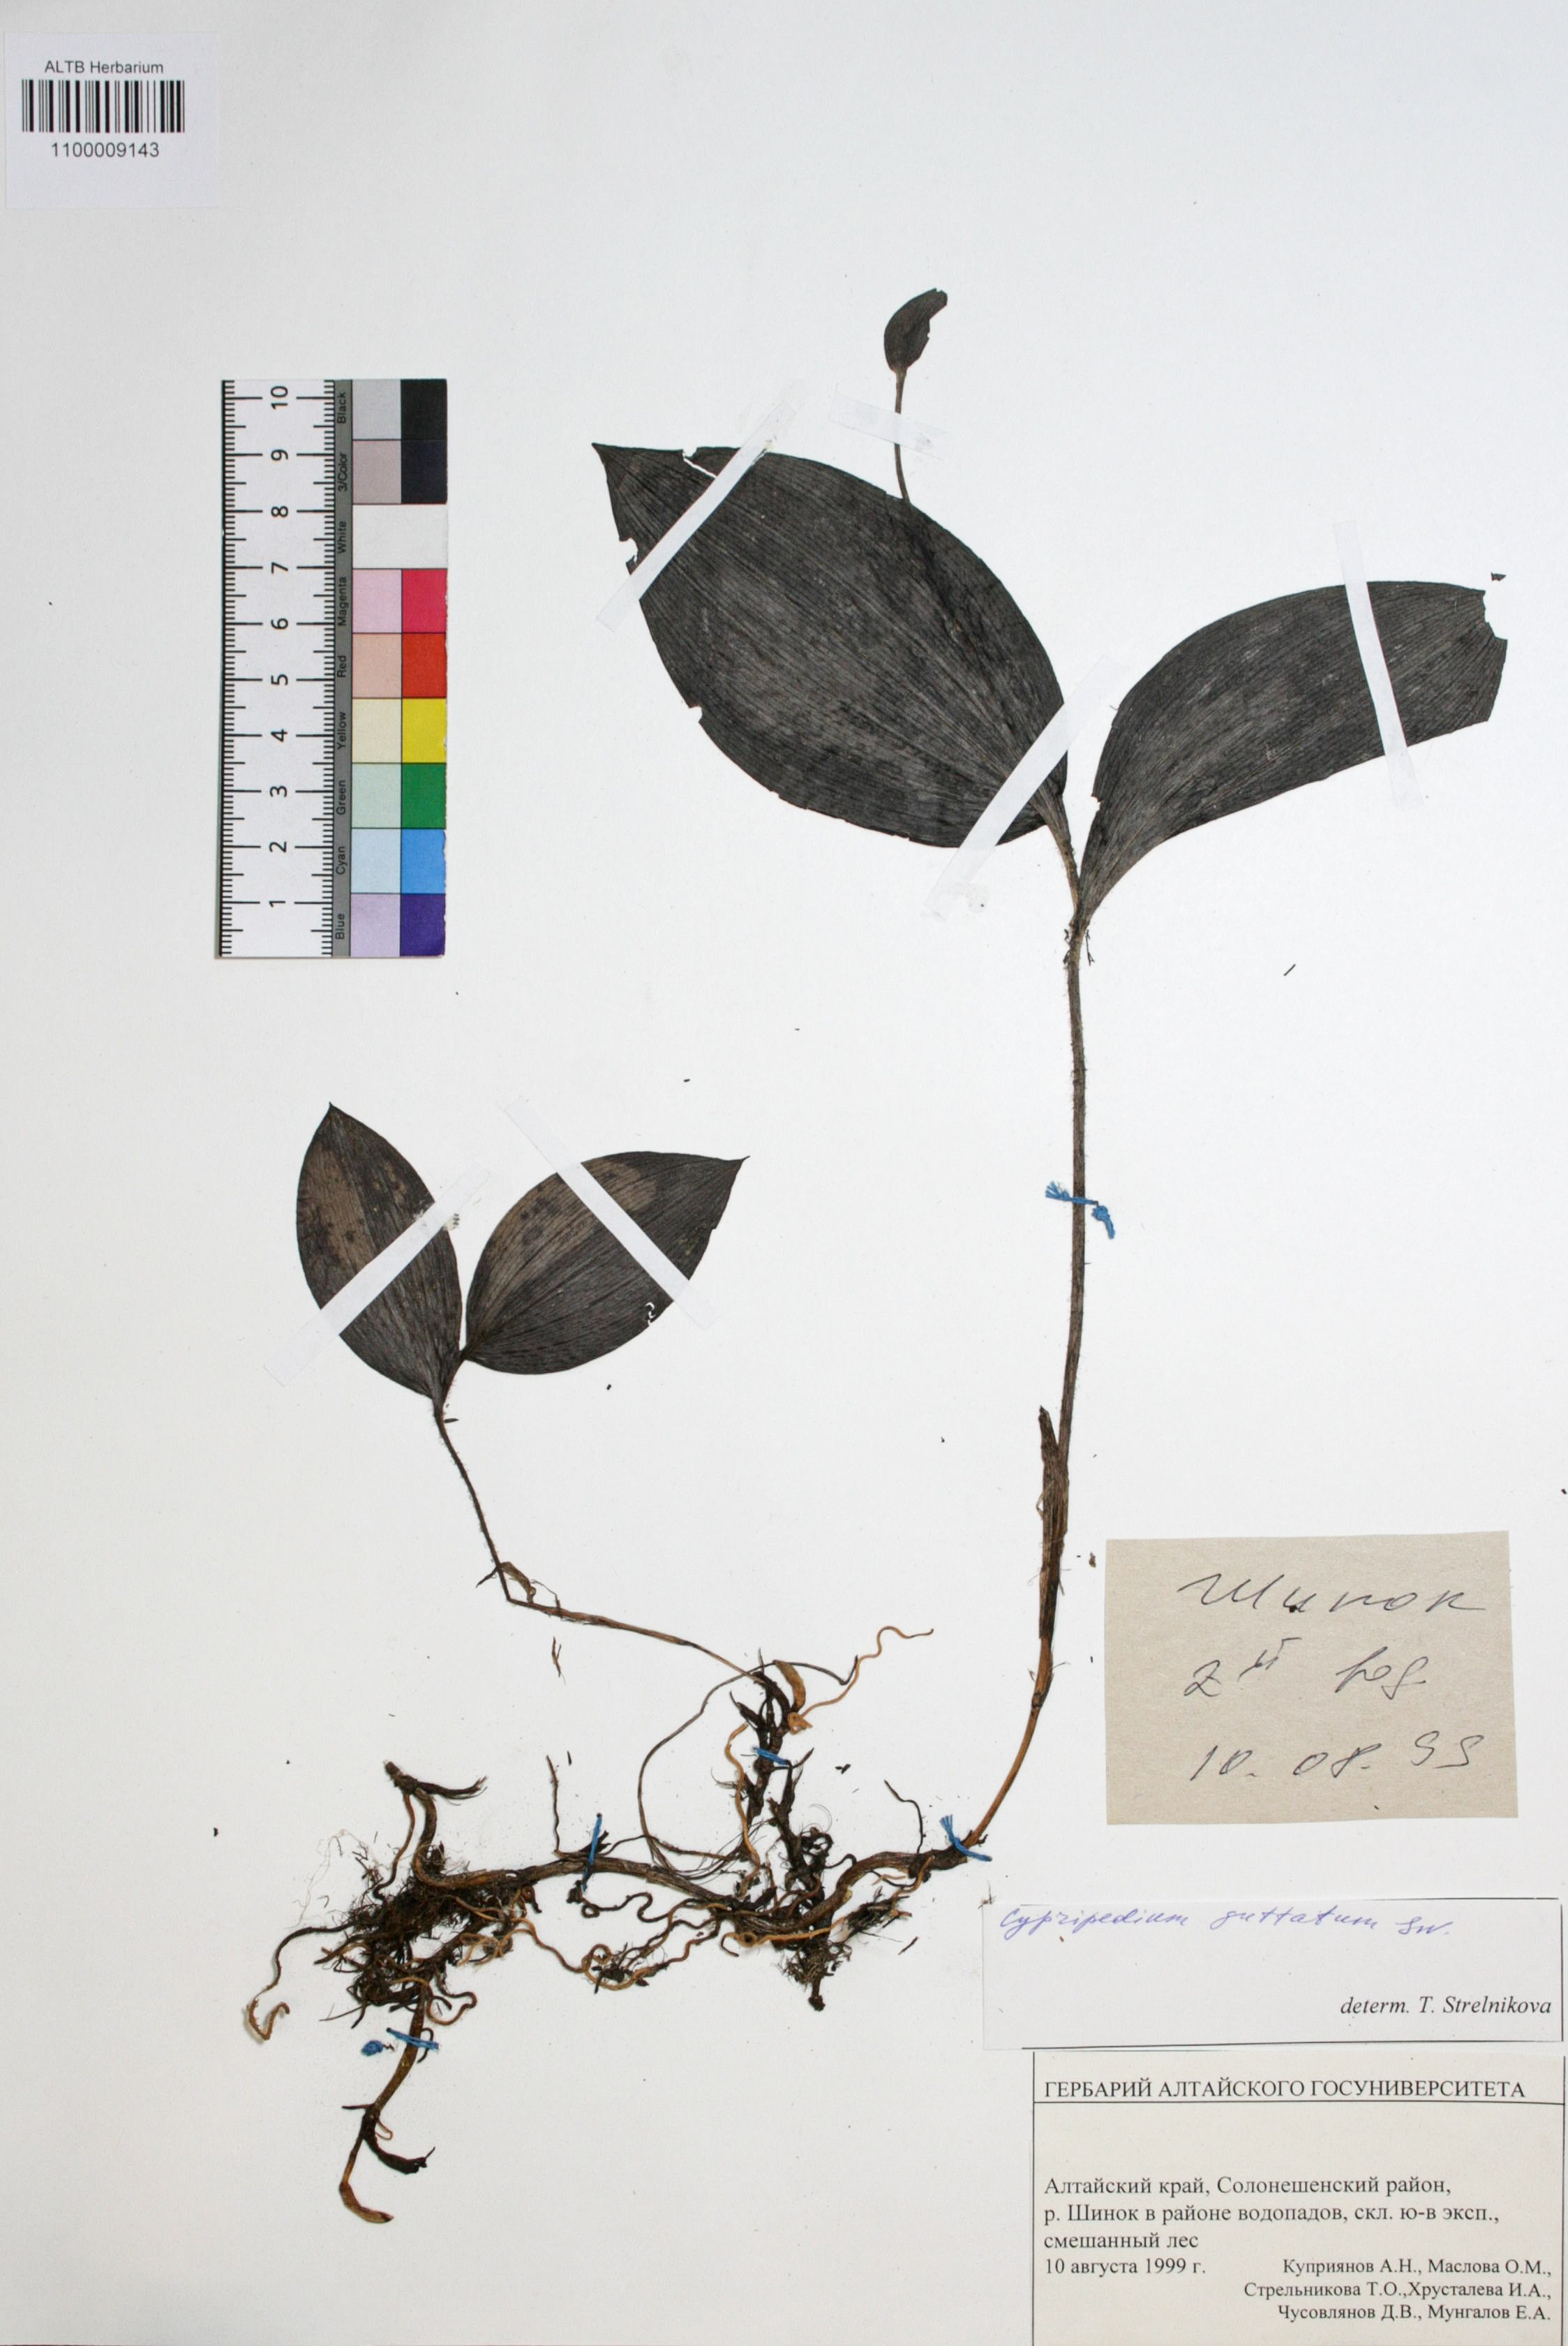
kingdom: Plantae
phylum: Tracheophyta
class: Liliopsida
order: Asparagales
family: Orchidaceae
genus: Cypripedium
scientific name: Cypripedium guttatum
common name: Pink lady slipper
